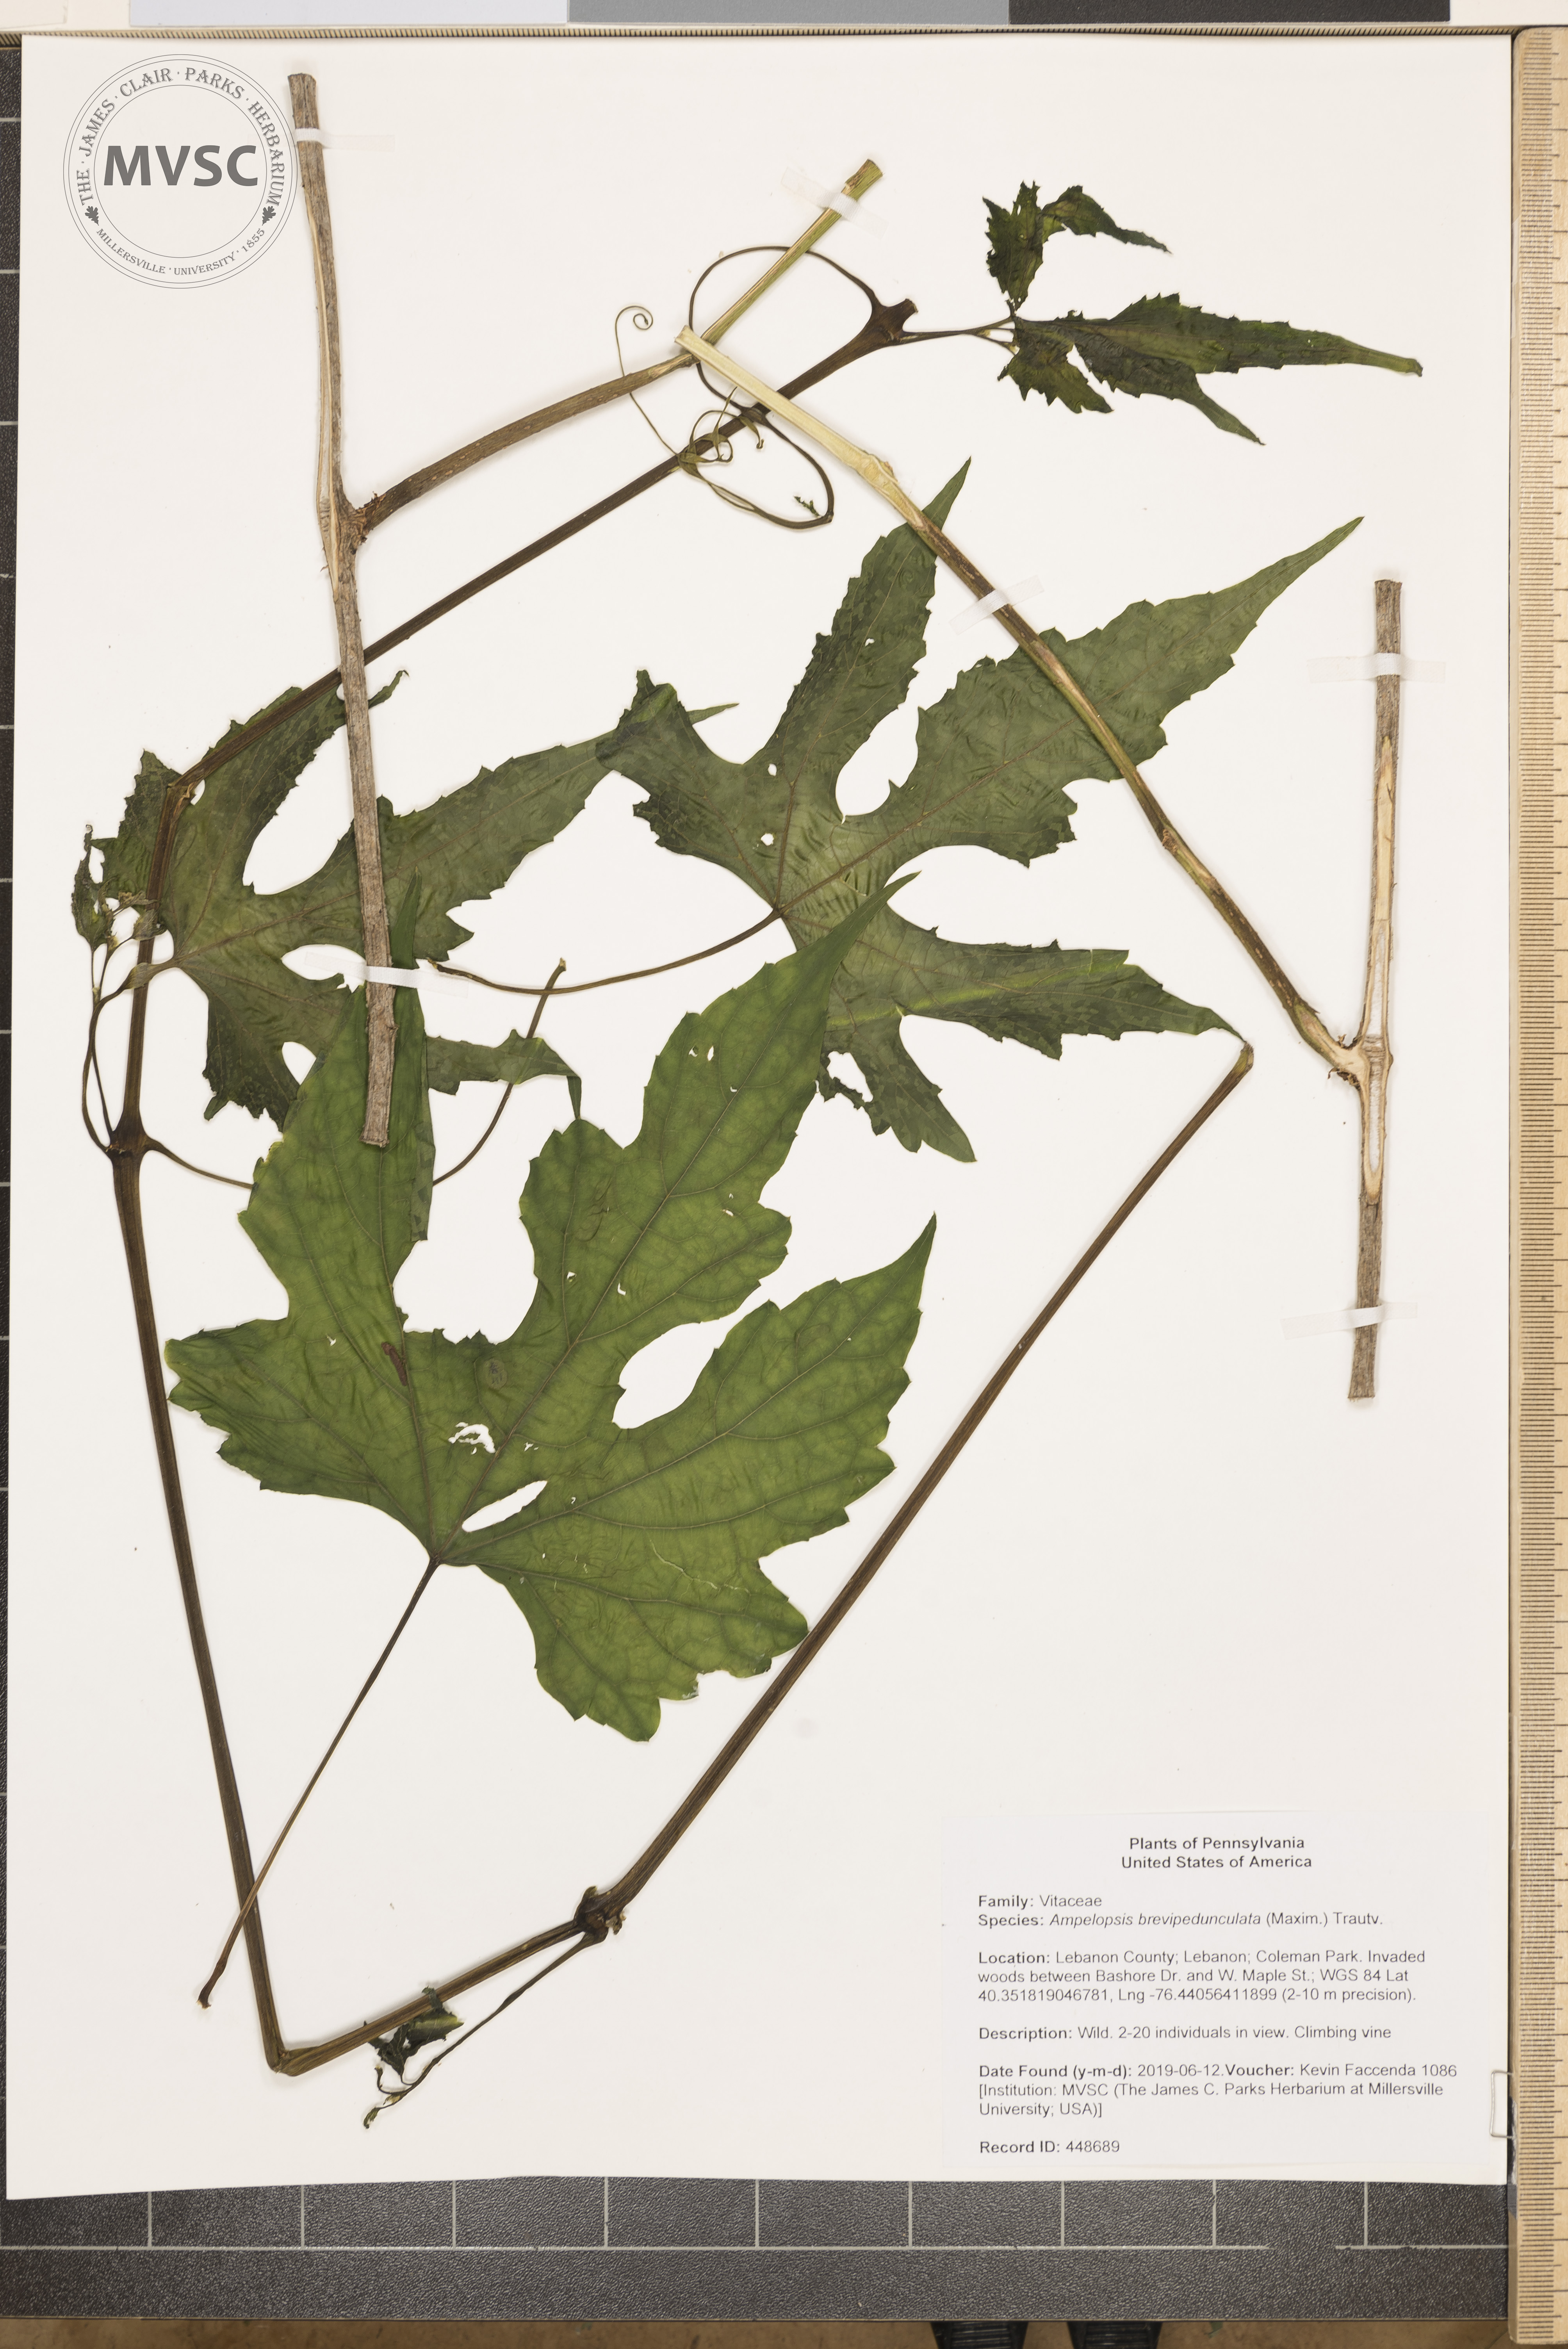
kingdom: Plantae
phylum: Tracheophyta
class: Magnoliopsida
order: Vitales
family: Vitaceae
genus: Ampelopsis
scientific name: Ampelopsis glandulosa
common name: Amur peppervine
